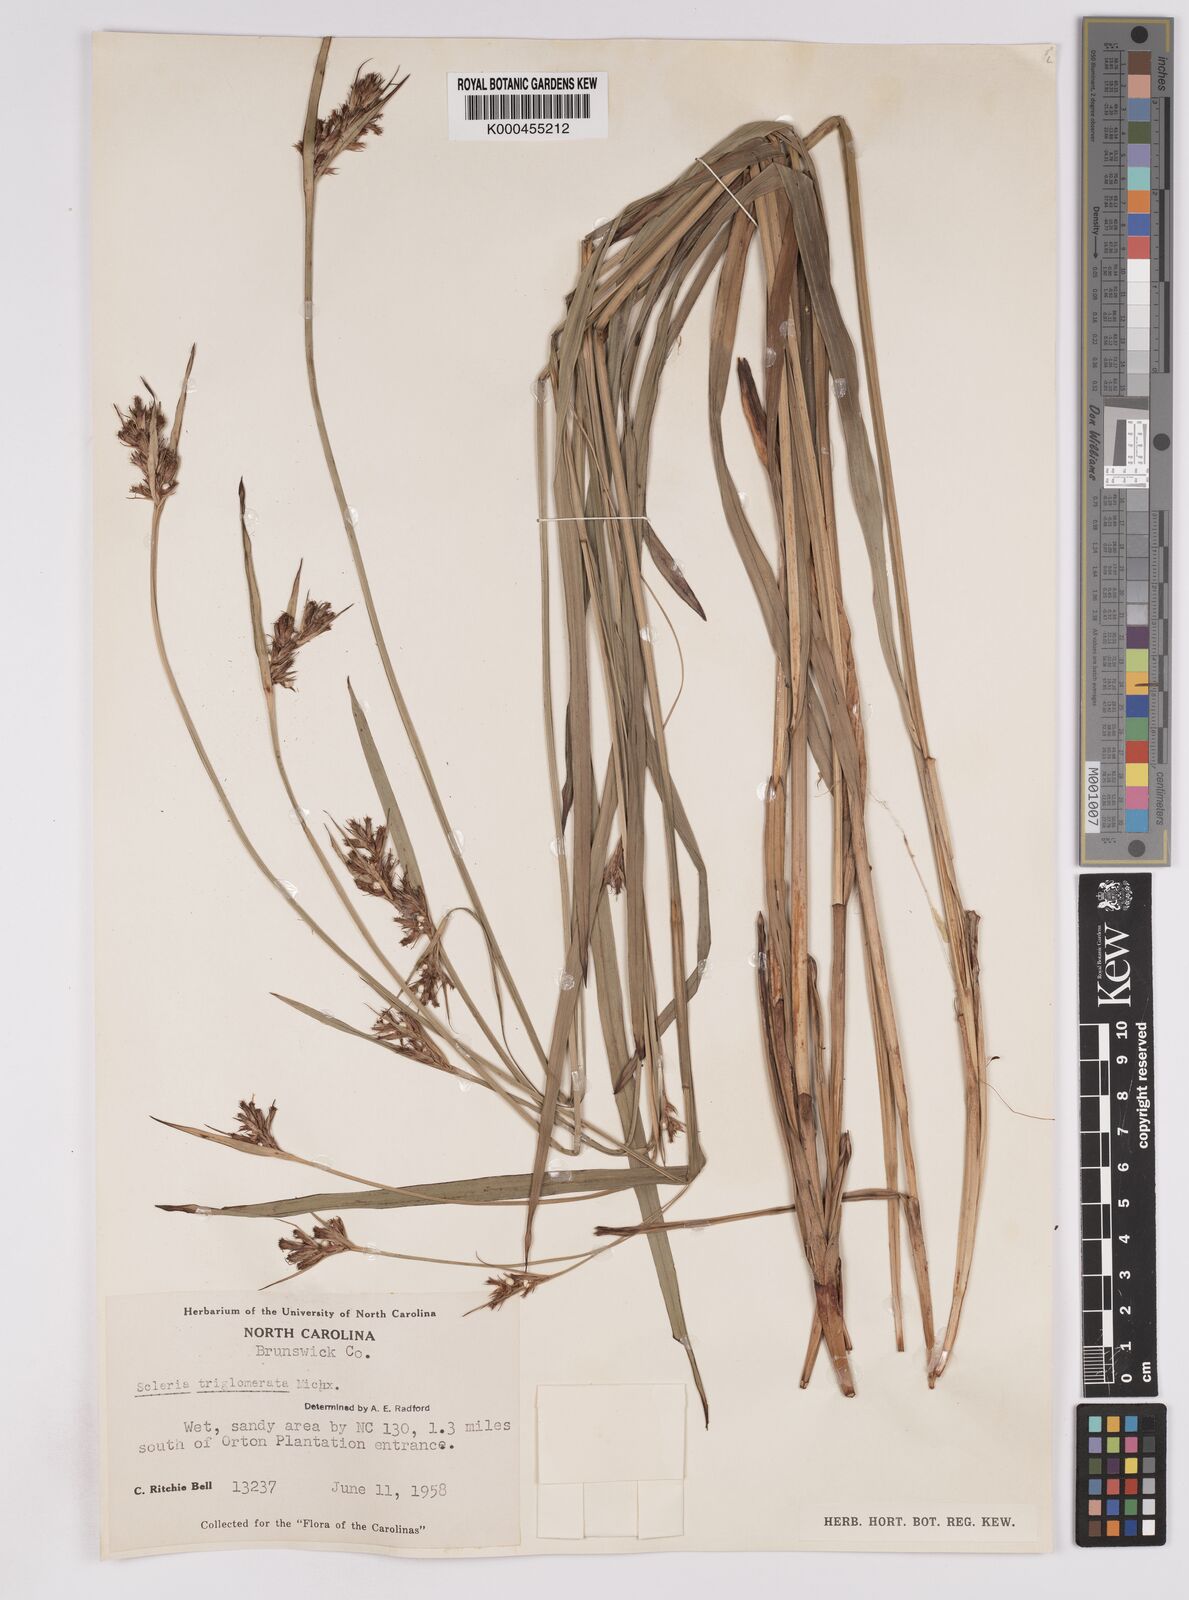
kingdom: Plantae
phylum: Tracheophyta
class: Liliopsida
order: Poales
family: Cyperaceae
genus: Scleria
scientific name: Scleria triglomerata
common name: Whip nutrush
